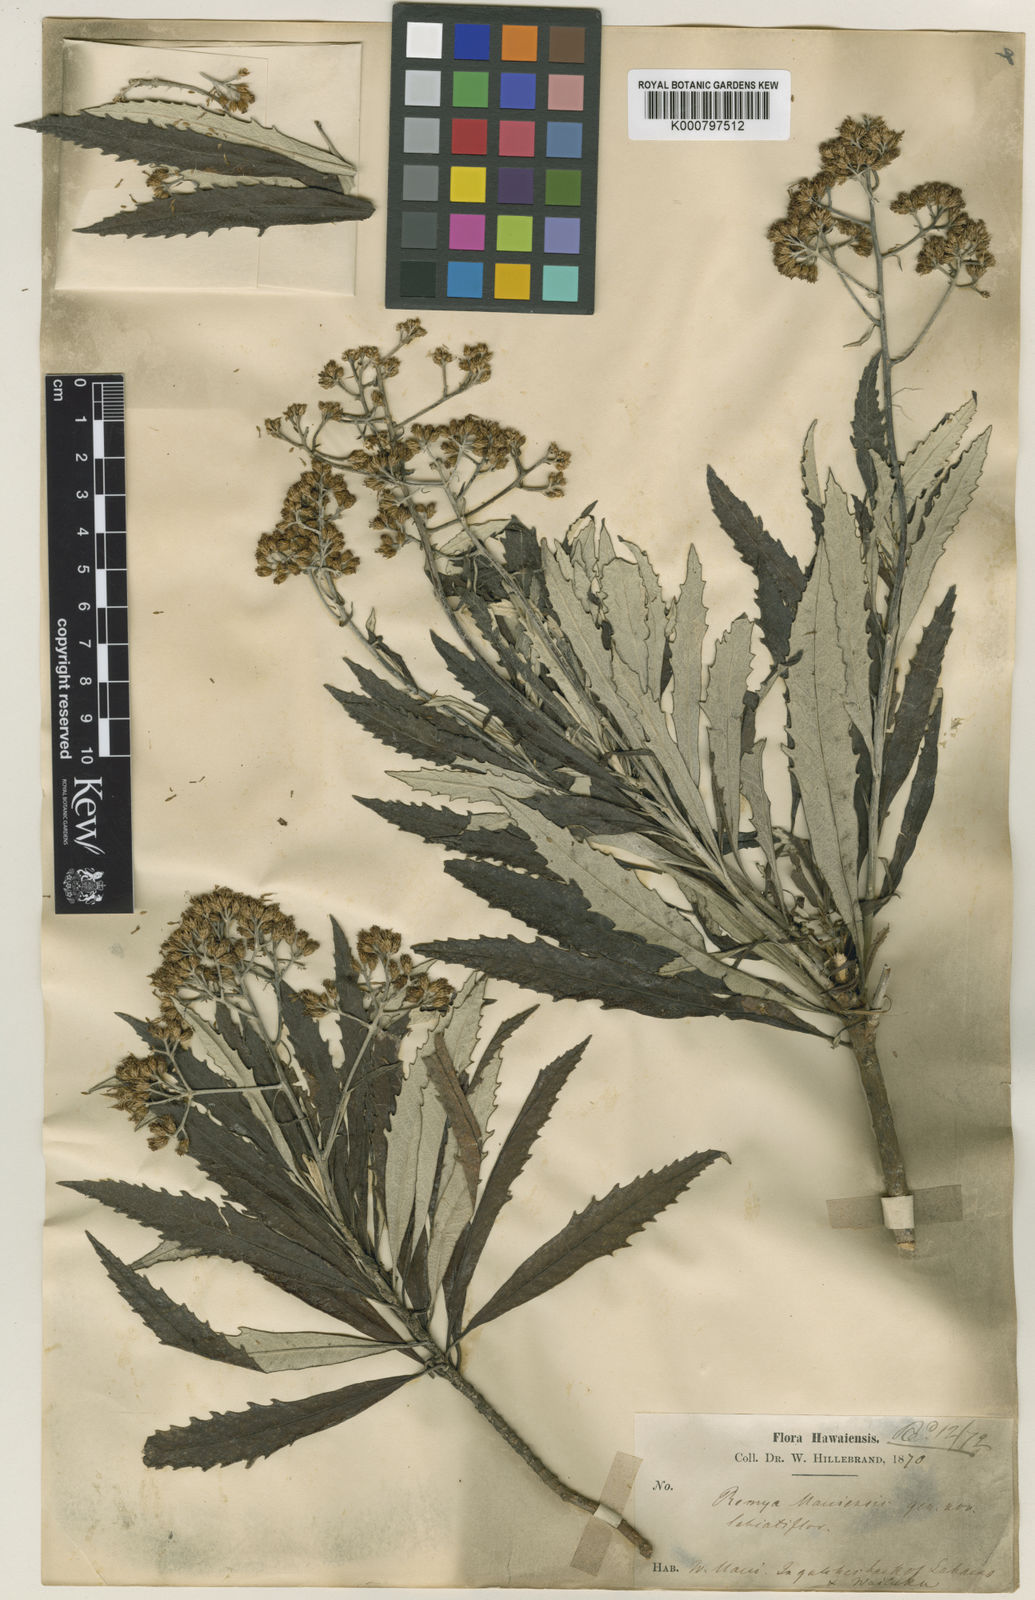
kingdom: Plantae
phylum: Tracheophyta
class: Magnoliopsida
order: Asterales
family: Asteraceae
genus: Remya
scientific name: Remya mauiensis
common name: Maui remya
